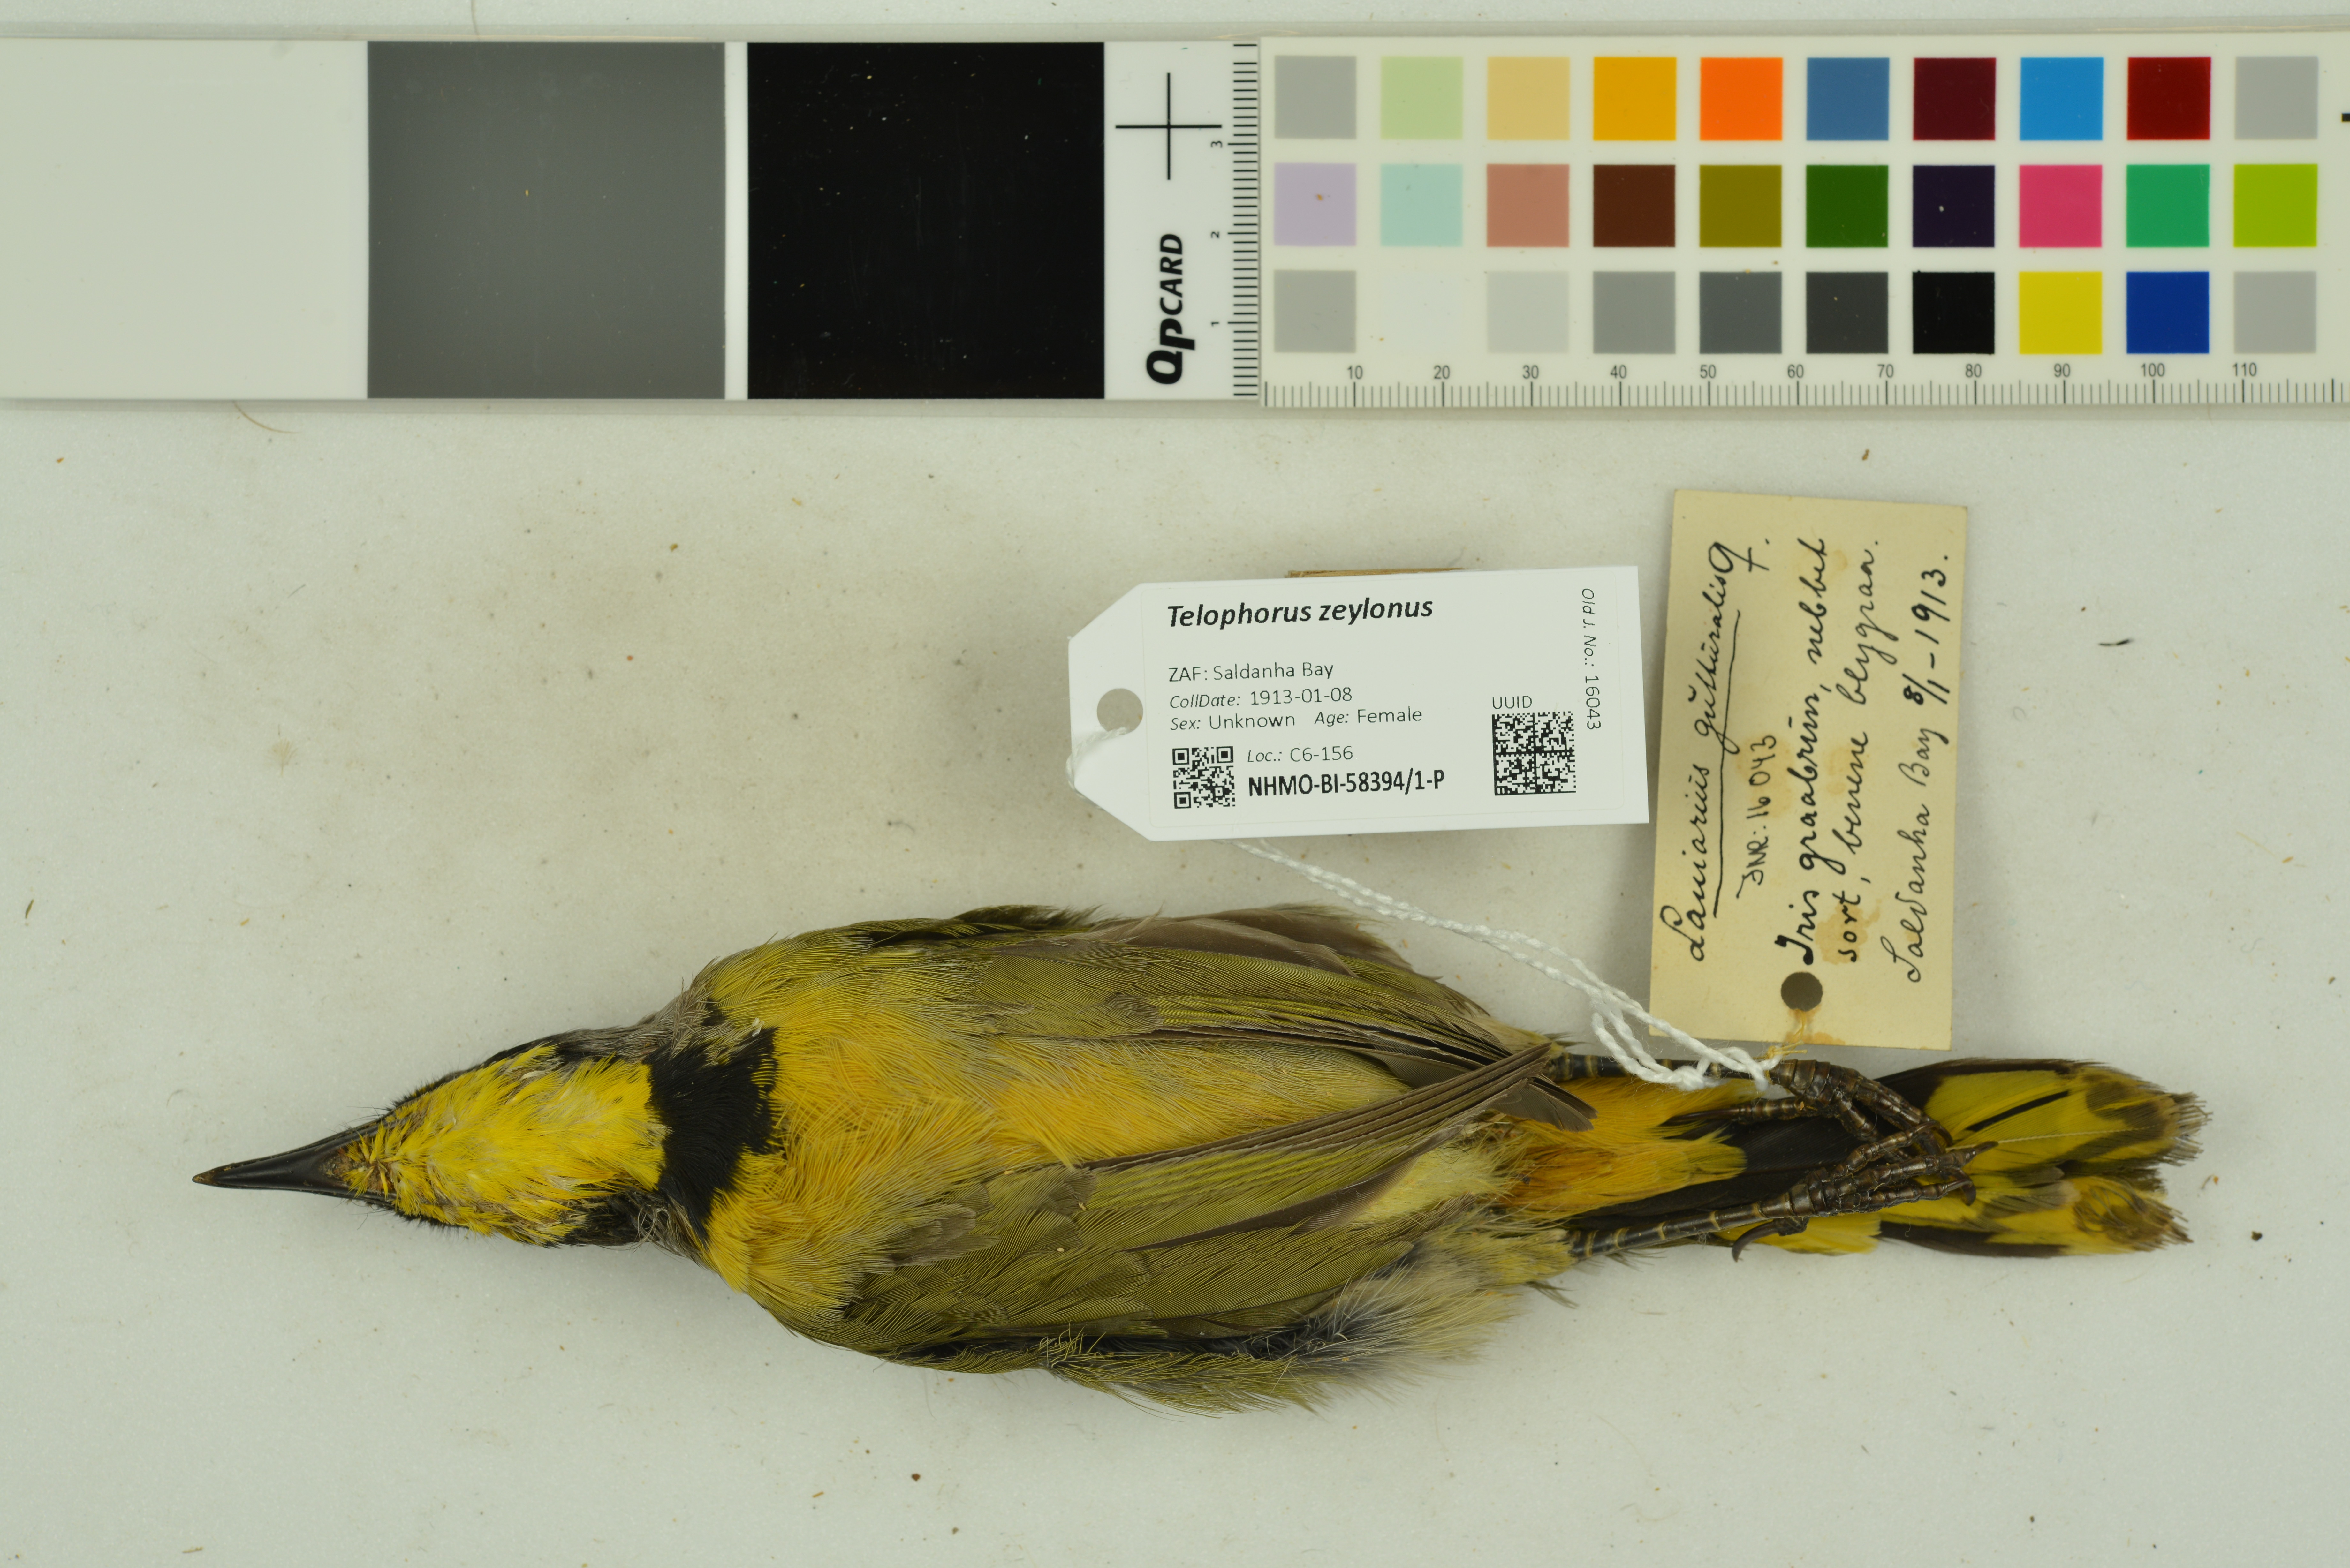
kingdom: Animalia
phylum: Chordata
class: Aves
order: Passeriformes
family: Malaconotidae
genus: Telophorus
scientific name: Telophorus zeylonus
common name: Bokmakierie
